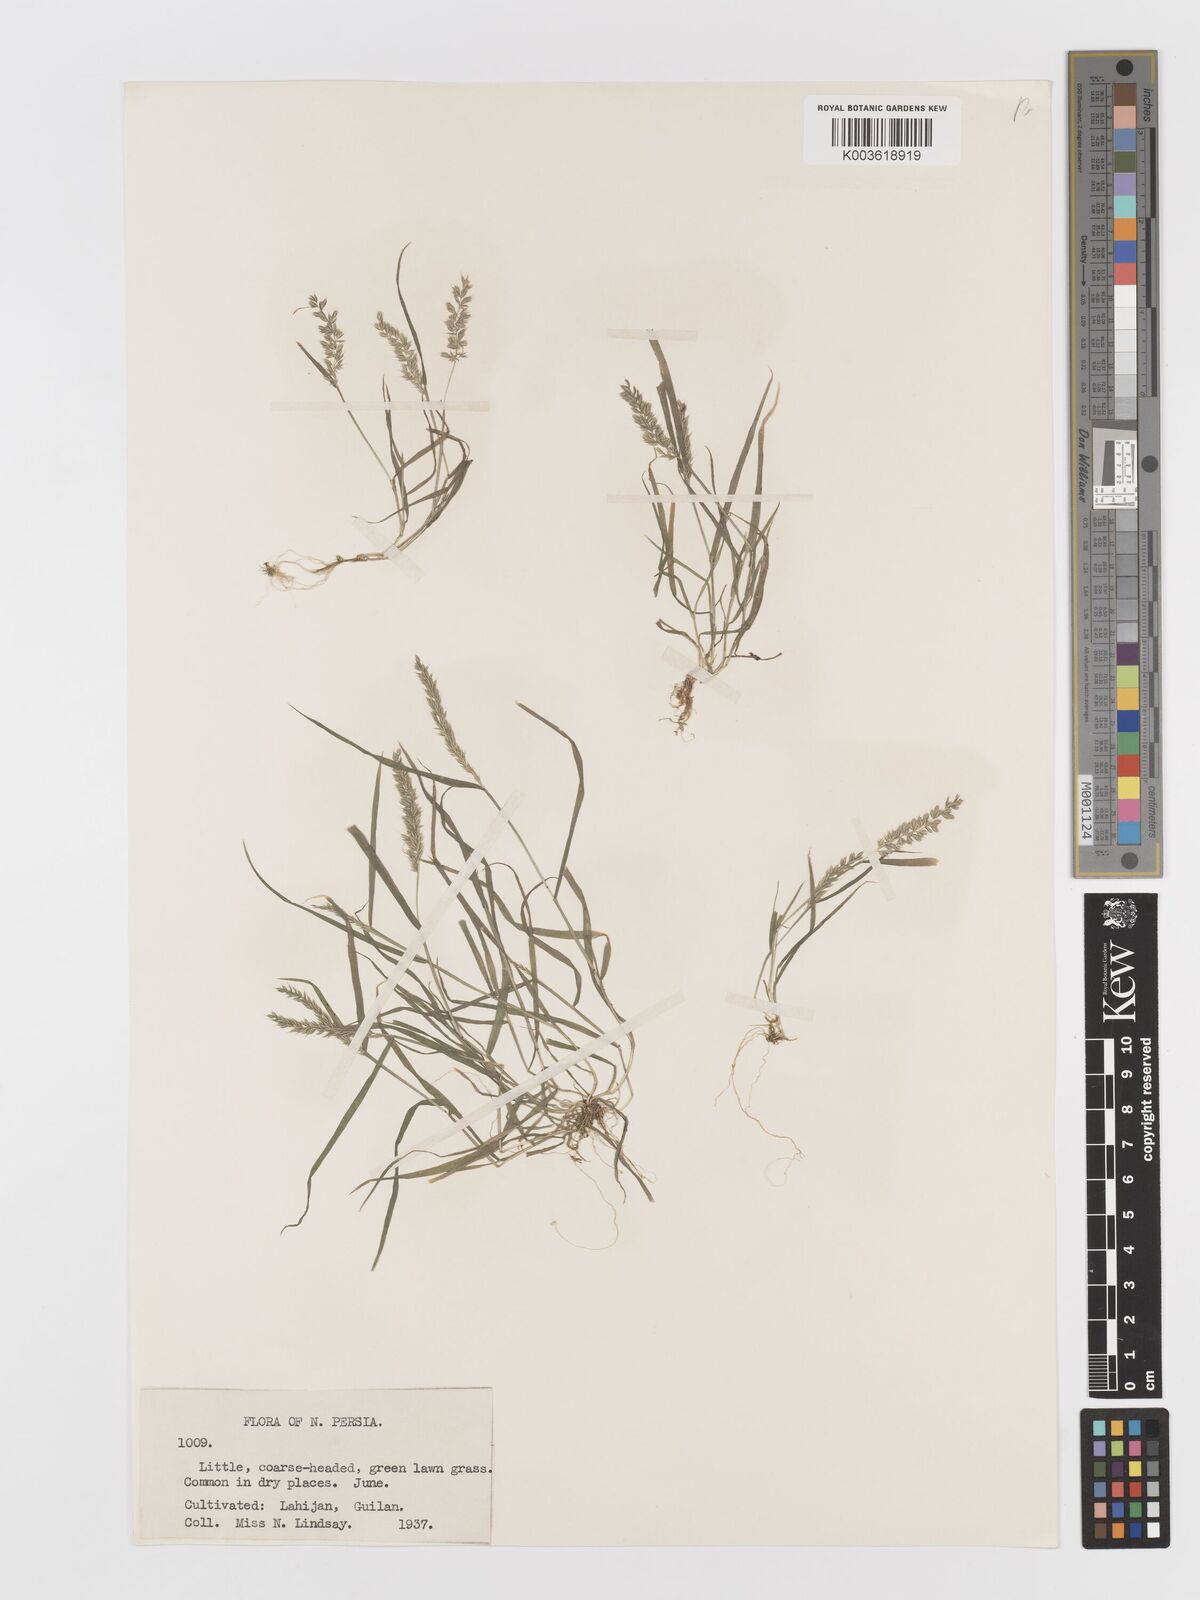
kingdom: Plantae
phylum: Tracheophyta
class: Liliopsida
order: Poales
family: Poaceae
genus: Rostraria
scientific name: Rostraria cristata
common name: Mediterranean hair-grass
